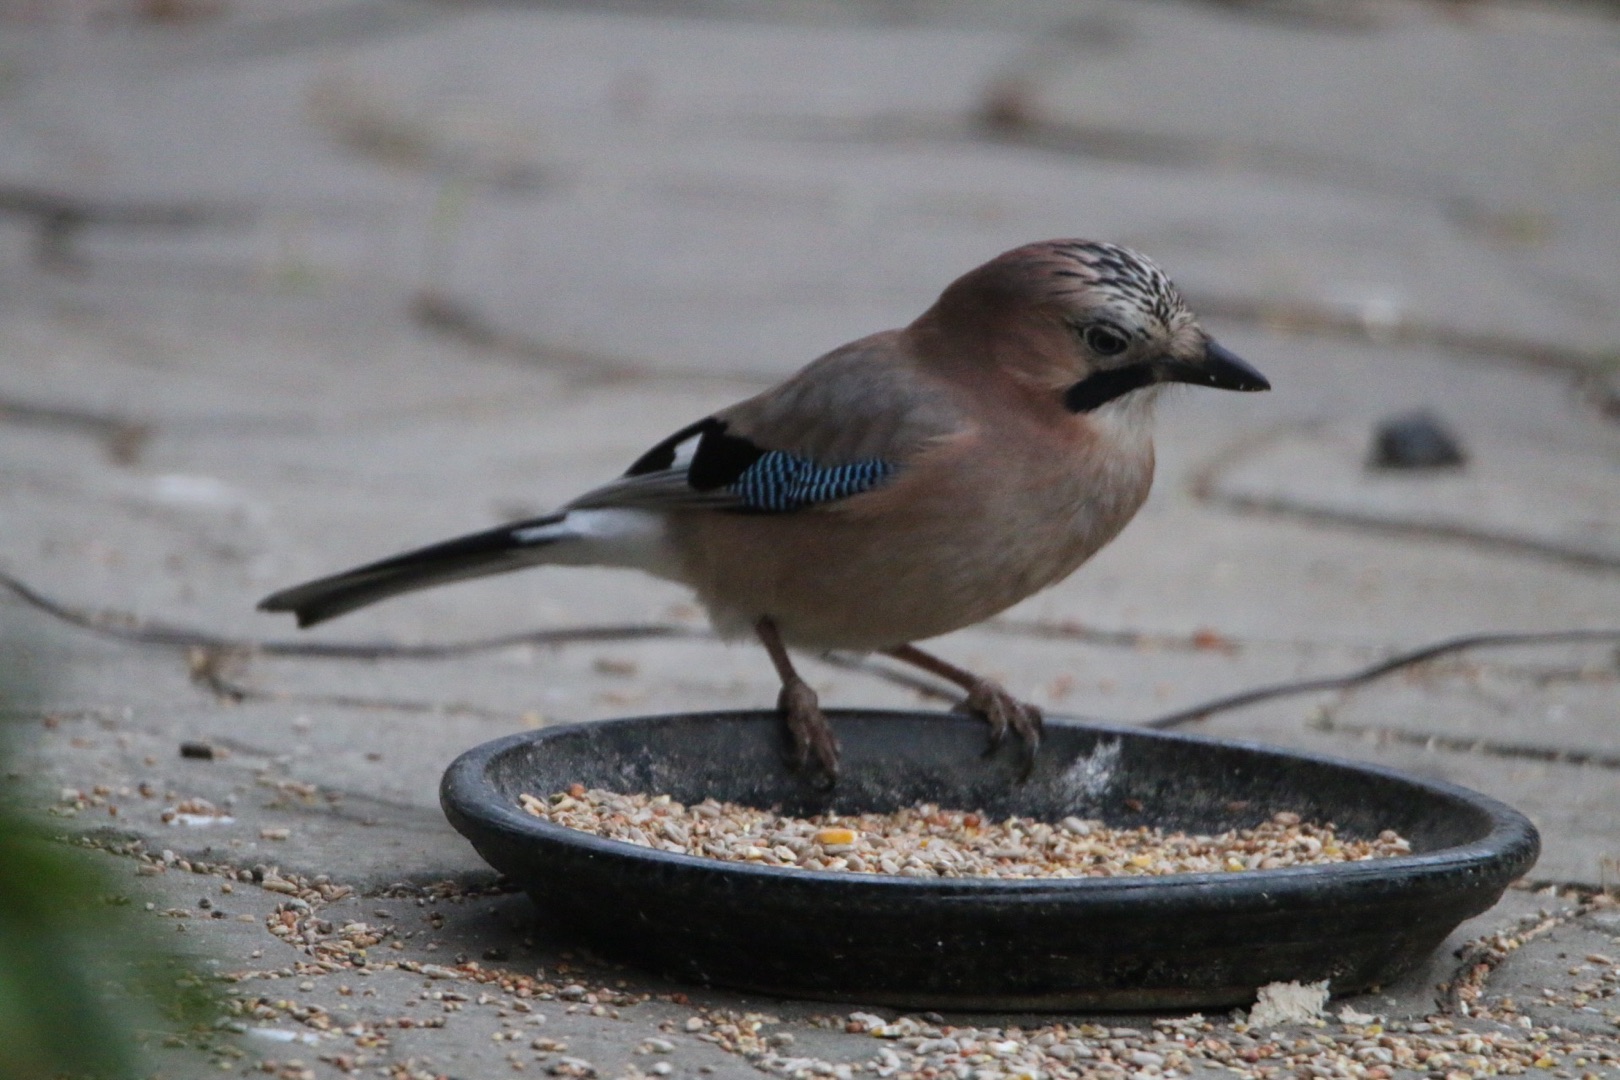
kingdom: Animalia
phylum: Chordata
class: Aves
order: Passeriformes
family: Corvidae
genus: Garrulus
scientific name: Garrulus glandarius
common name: Skovskade
